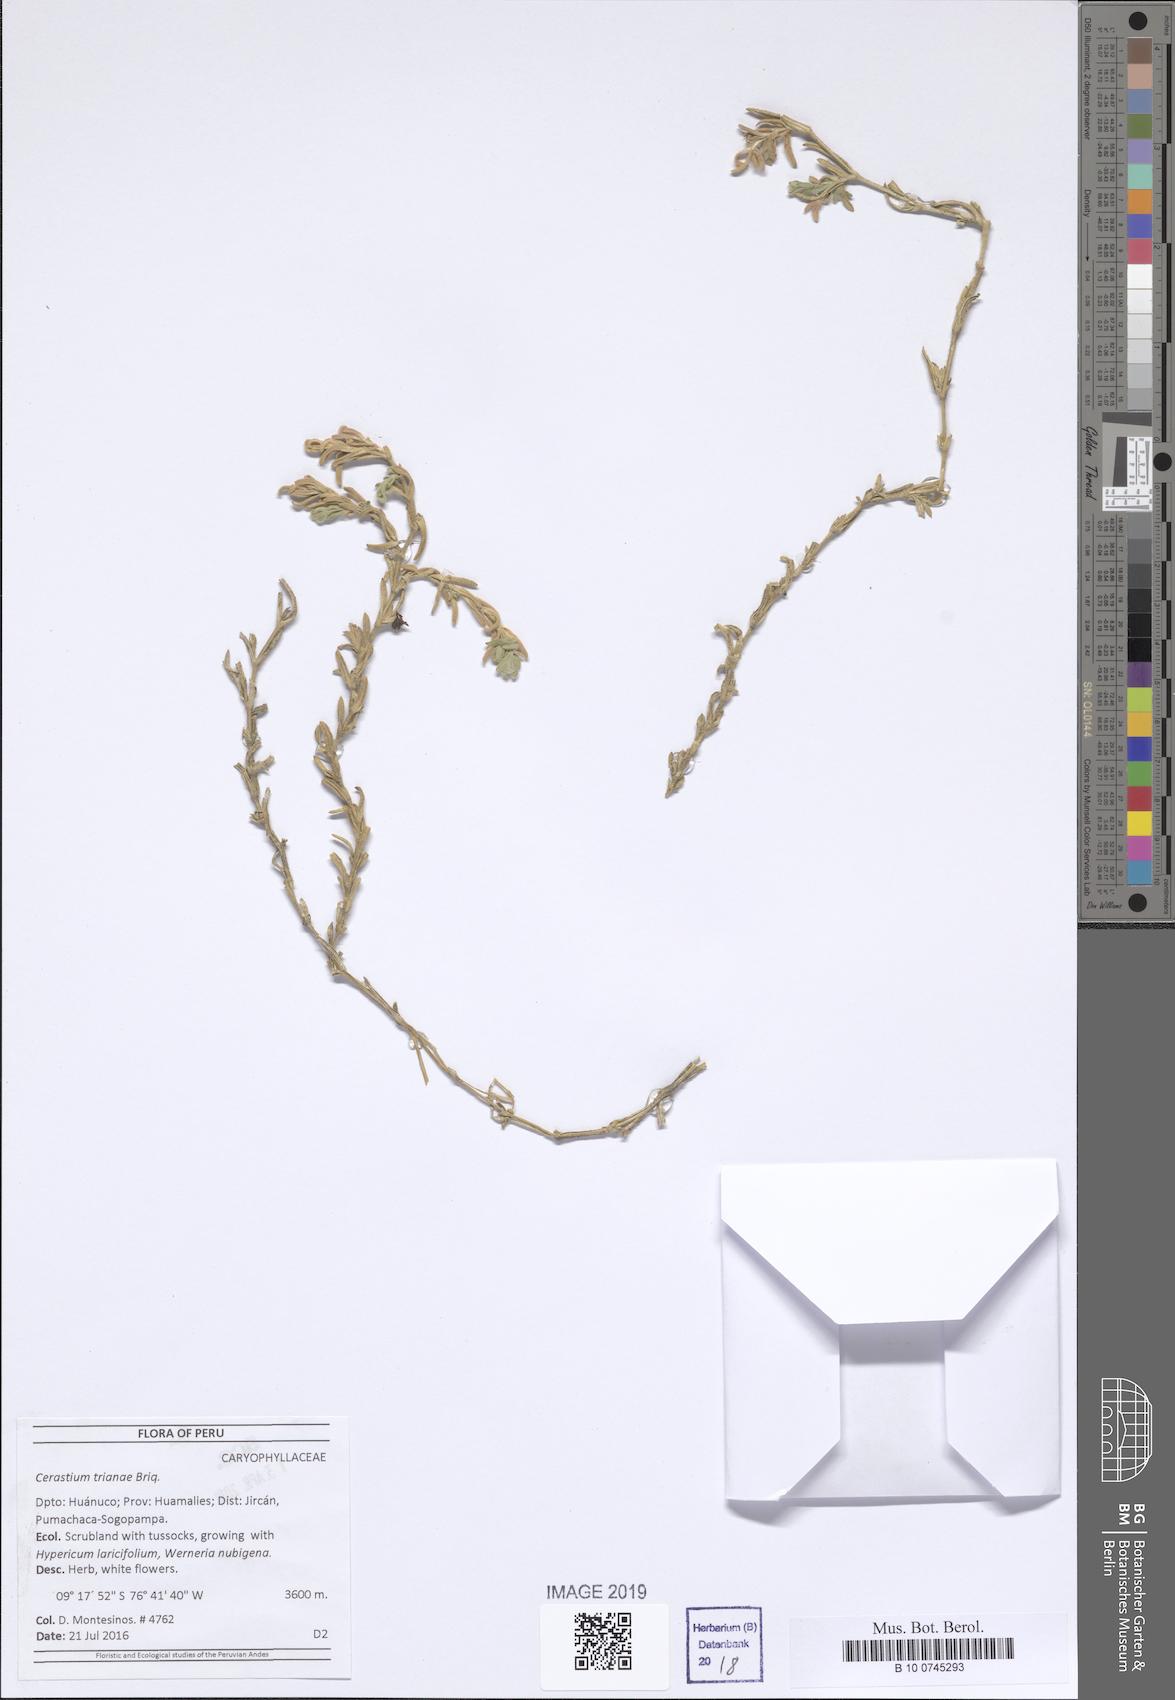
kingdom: Plantae
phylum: Tracheophyta
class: Magnoliopsida
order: Caryophyllales
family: Caryophyllaceae
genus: Cerastium
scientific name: Cerastium trianae
